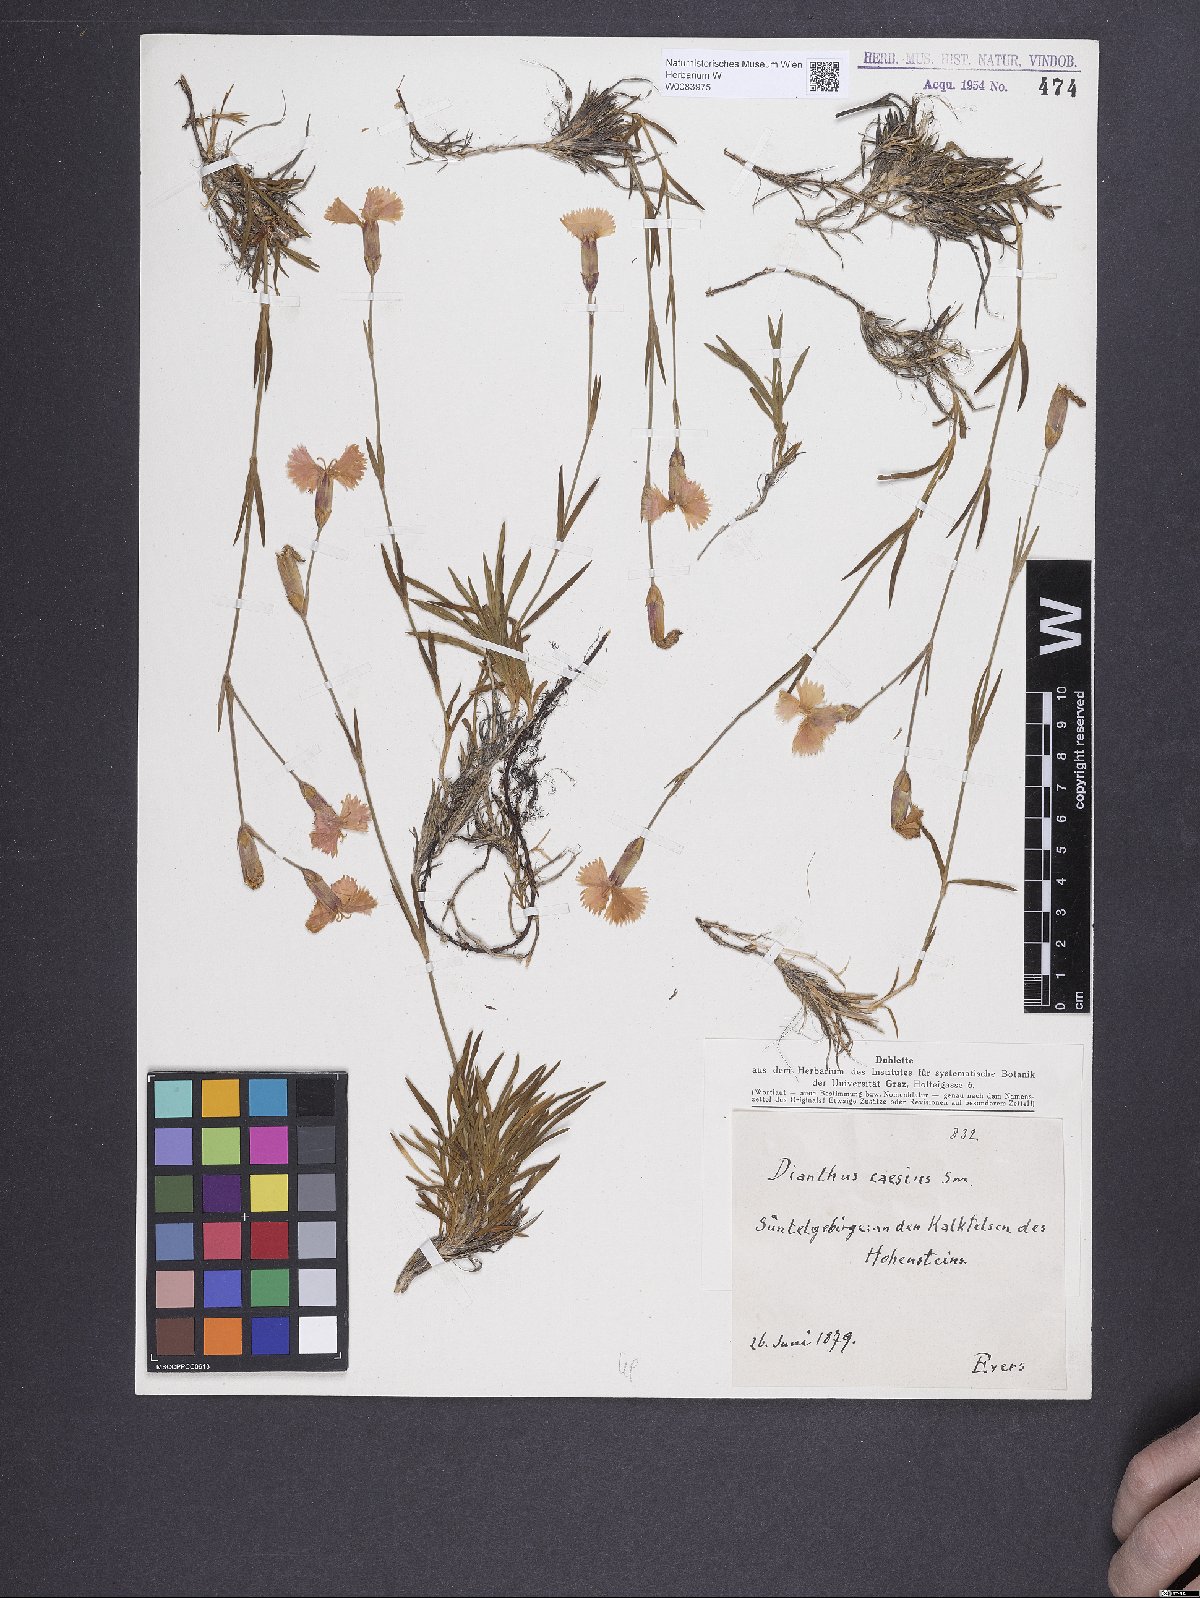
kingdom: Plantae
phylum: Tracheophyta
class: Magnoliopsida
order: Caryophyllales
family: Caryophyllaceae
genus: Dianthus
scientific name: Dianthus gratianopolitanus
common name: Cheddar pink
